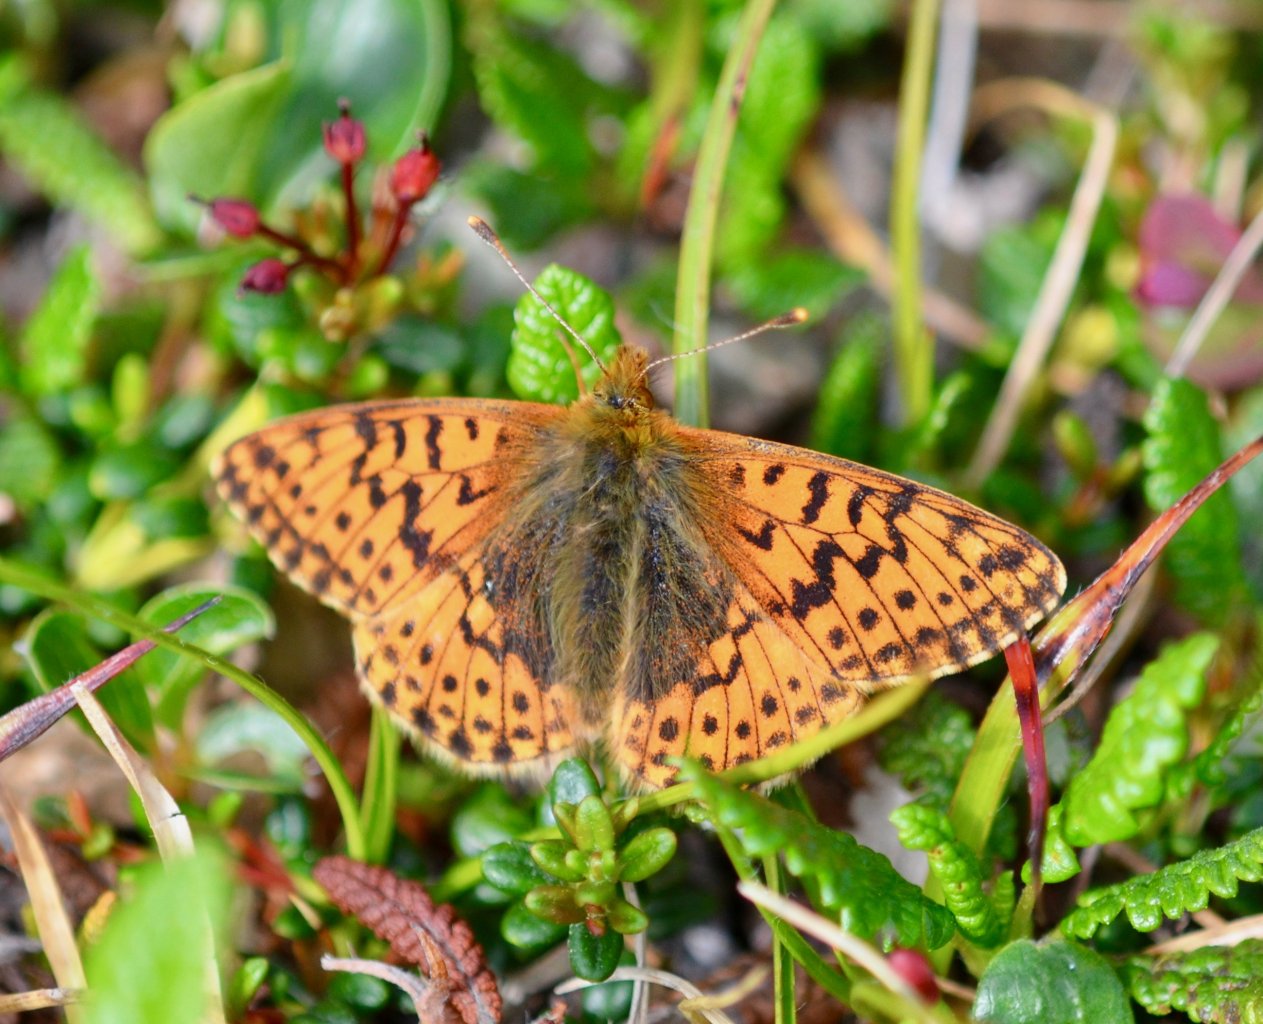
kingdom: Animalia
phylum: Arthropoda
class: Insecta
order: Lepidoptera
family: Nymphalidae
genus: Boloria
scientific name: Boloria alaskensis
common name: Alaskan Fritillary
